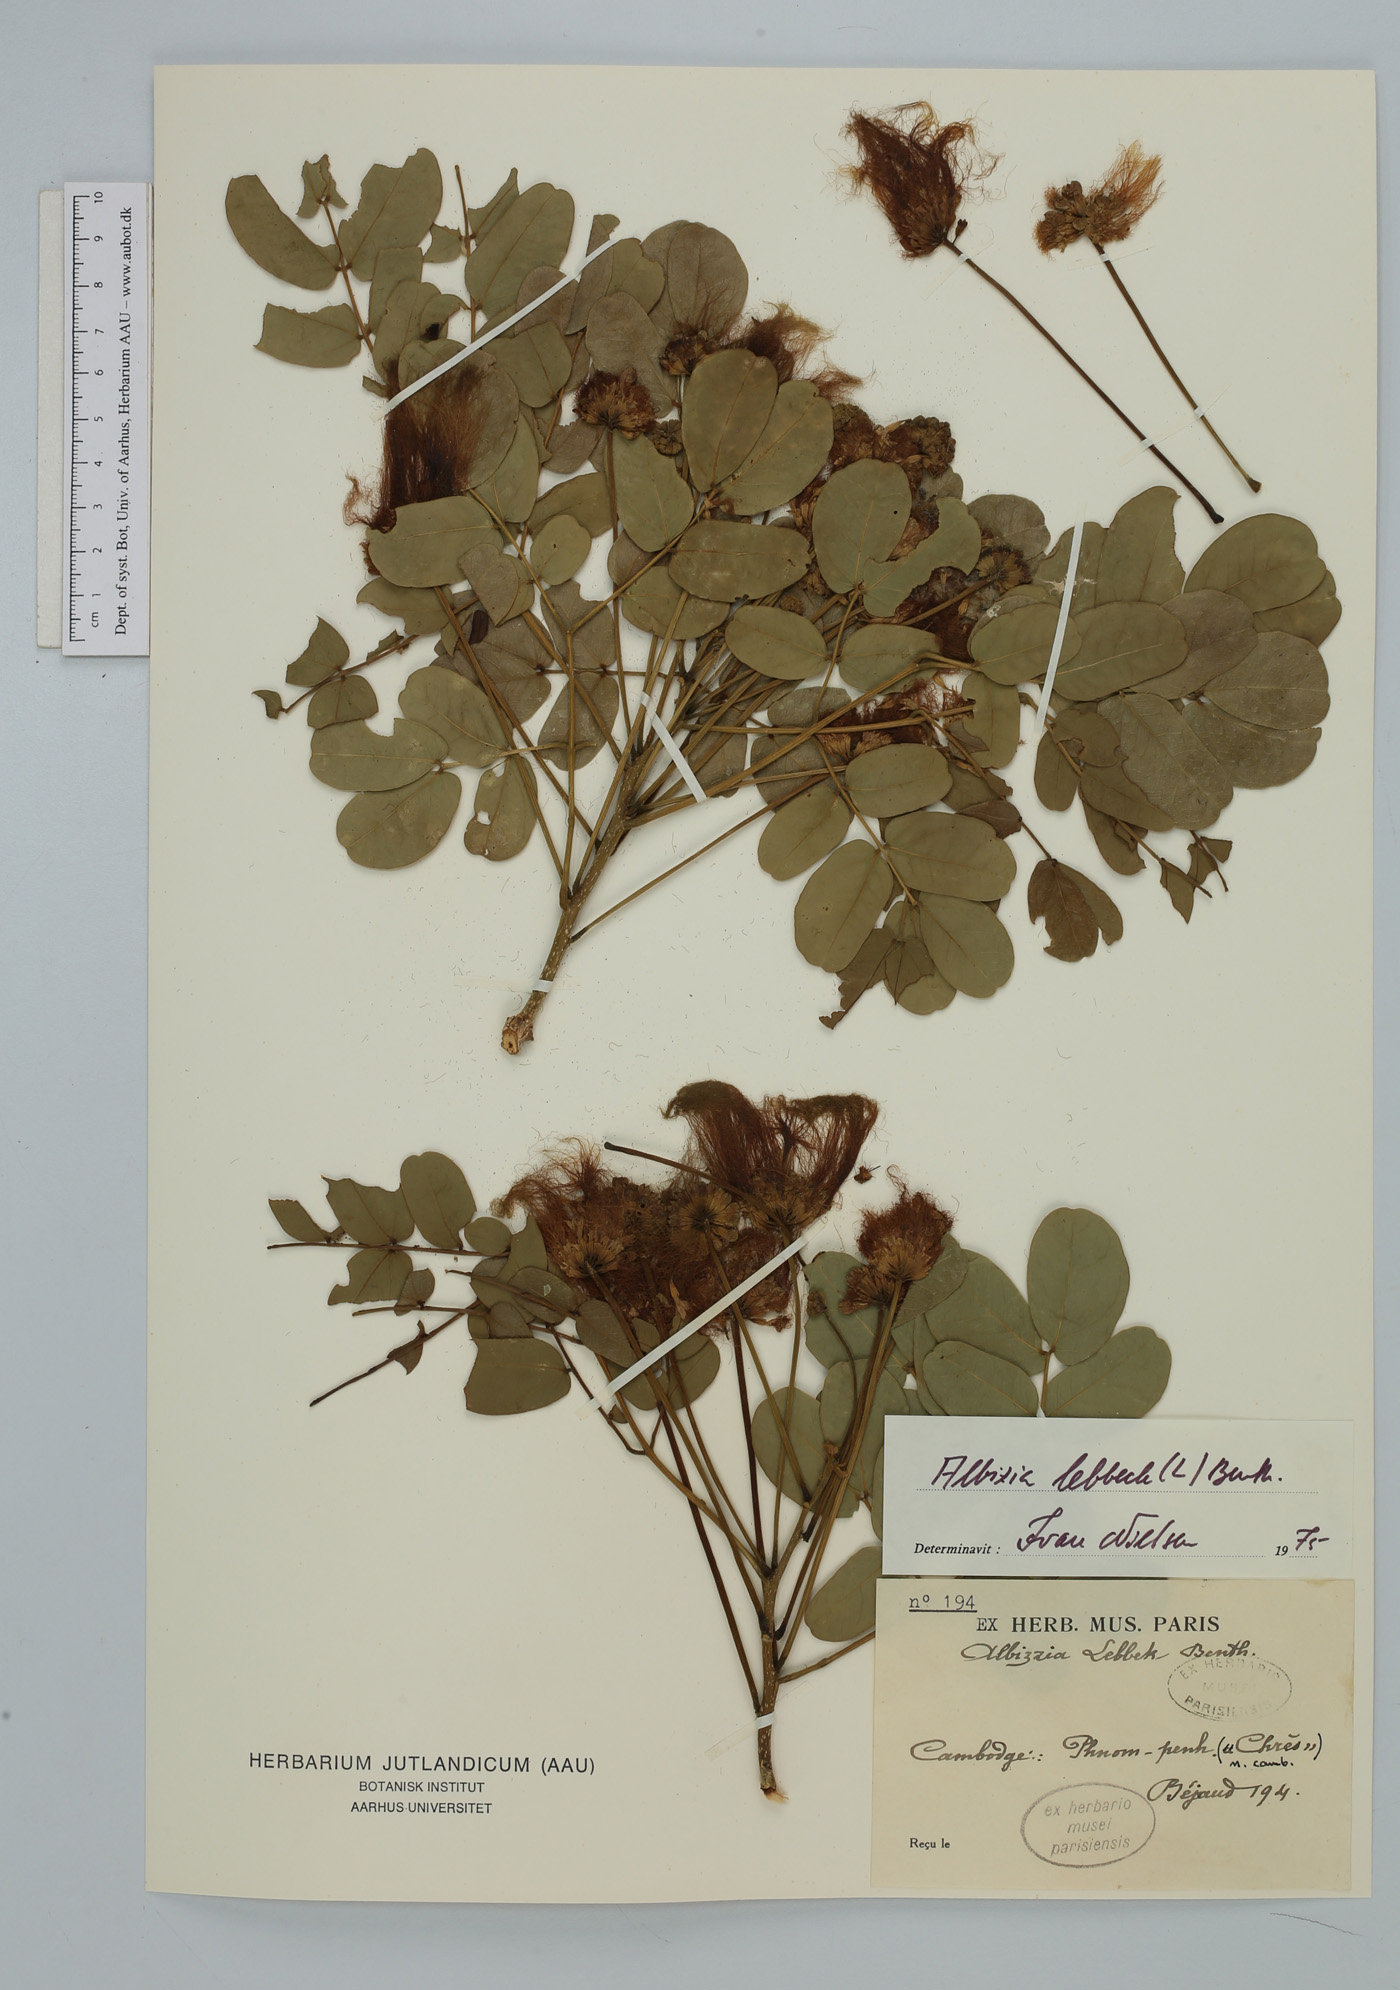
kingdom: Plantae
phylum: Tracheophyta
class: Magnoliopsida
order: Fabales
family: Fabaceae
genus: Albizia
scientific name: Albizia lebbeck
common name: Woman's tongue
